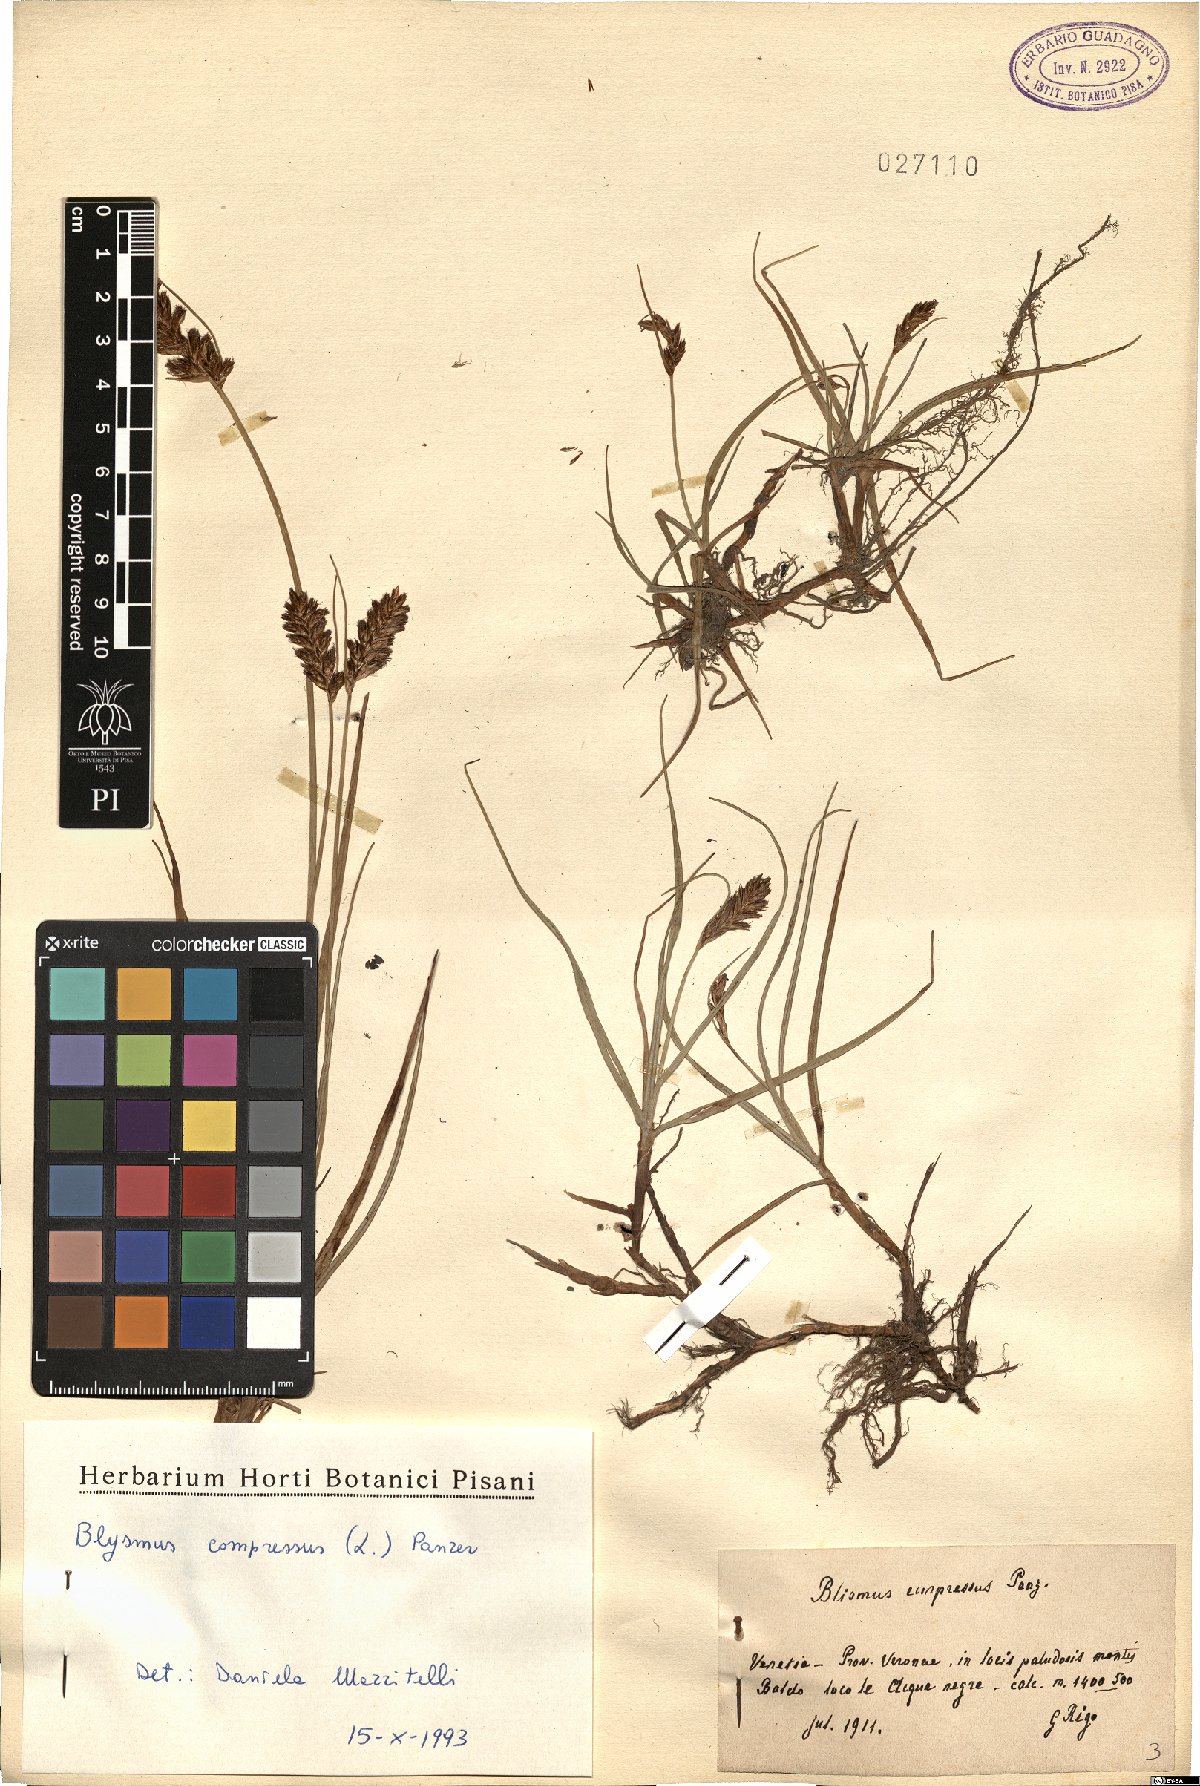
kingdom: Plantae
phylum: Tracheophyta
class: Liliopsida
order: Poales
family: Cyperaceae
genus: Blysmus
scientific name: Blysmus compressus
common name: Flat-sedge
